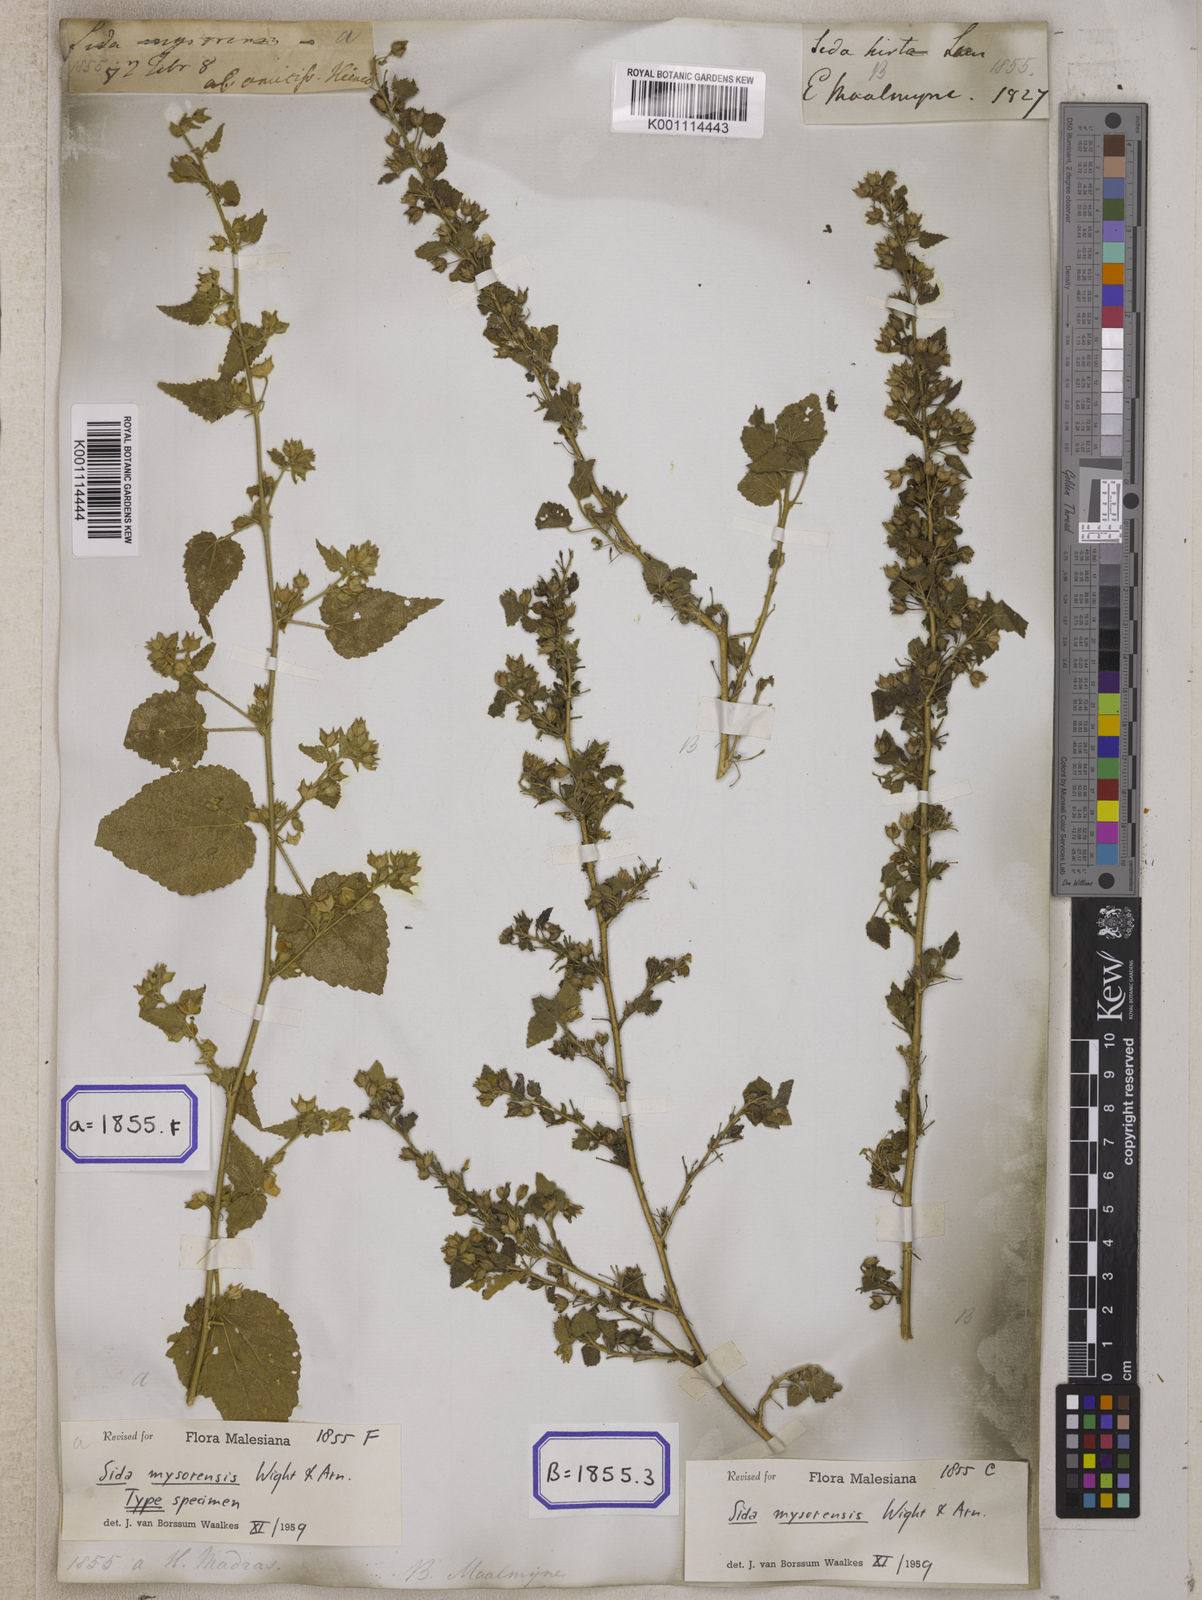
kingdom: Plantae
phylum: Tracheophyta
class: Magnoliopsida
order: Malvales
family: Malvaceae
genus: Abutilon
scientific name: Abutilon hirtum
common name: Florida keys indian mallow
